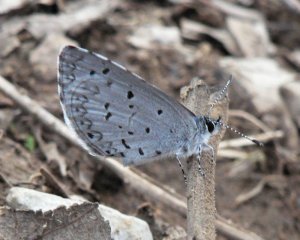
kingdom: Animalia
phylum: Arthropoda
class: Insecta
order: Lepidoptera
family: Lycaenidae
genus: Celastrina
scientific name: Celastrina ladon
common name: Spring Azure
